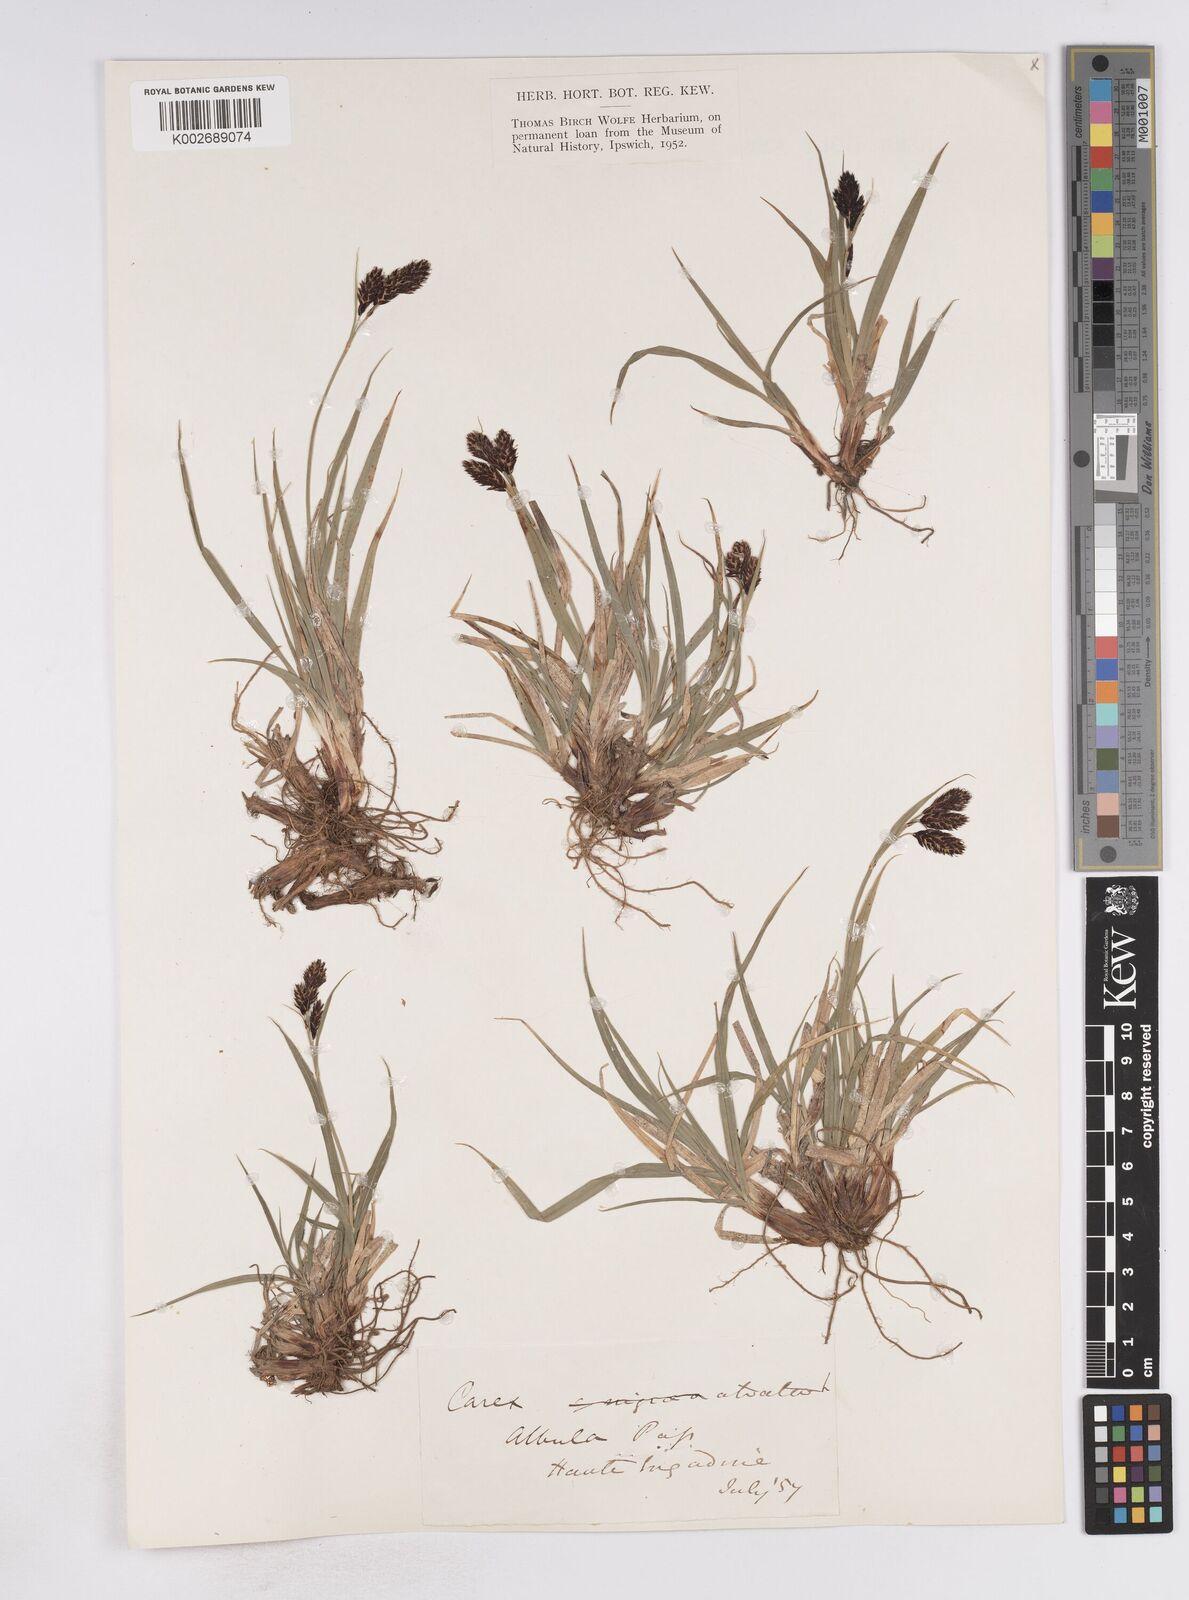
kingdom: Plantae
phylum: Tracheophyta
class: Liliopsida
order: Poales
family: Cyperaceae
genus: Carex
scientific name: Carex atrata
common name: Black alpine sedge
